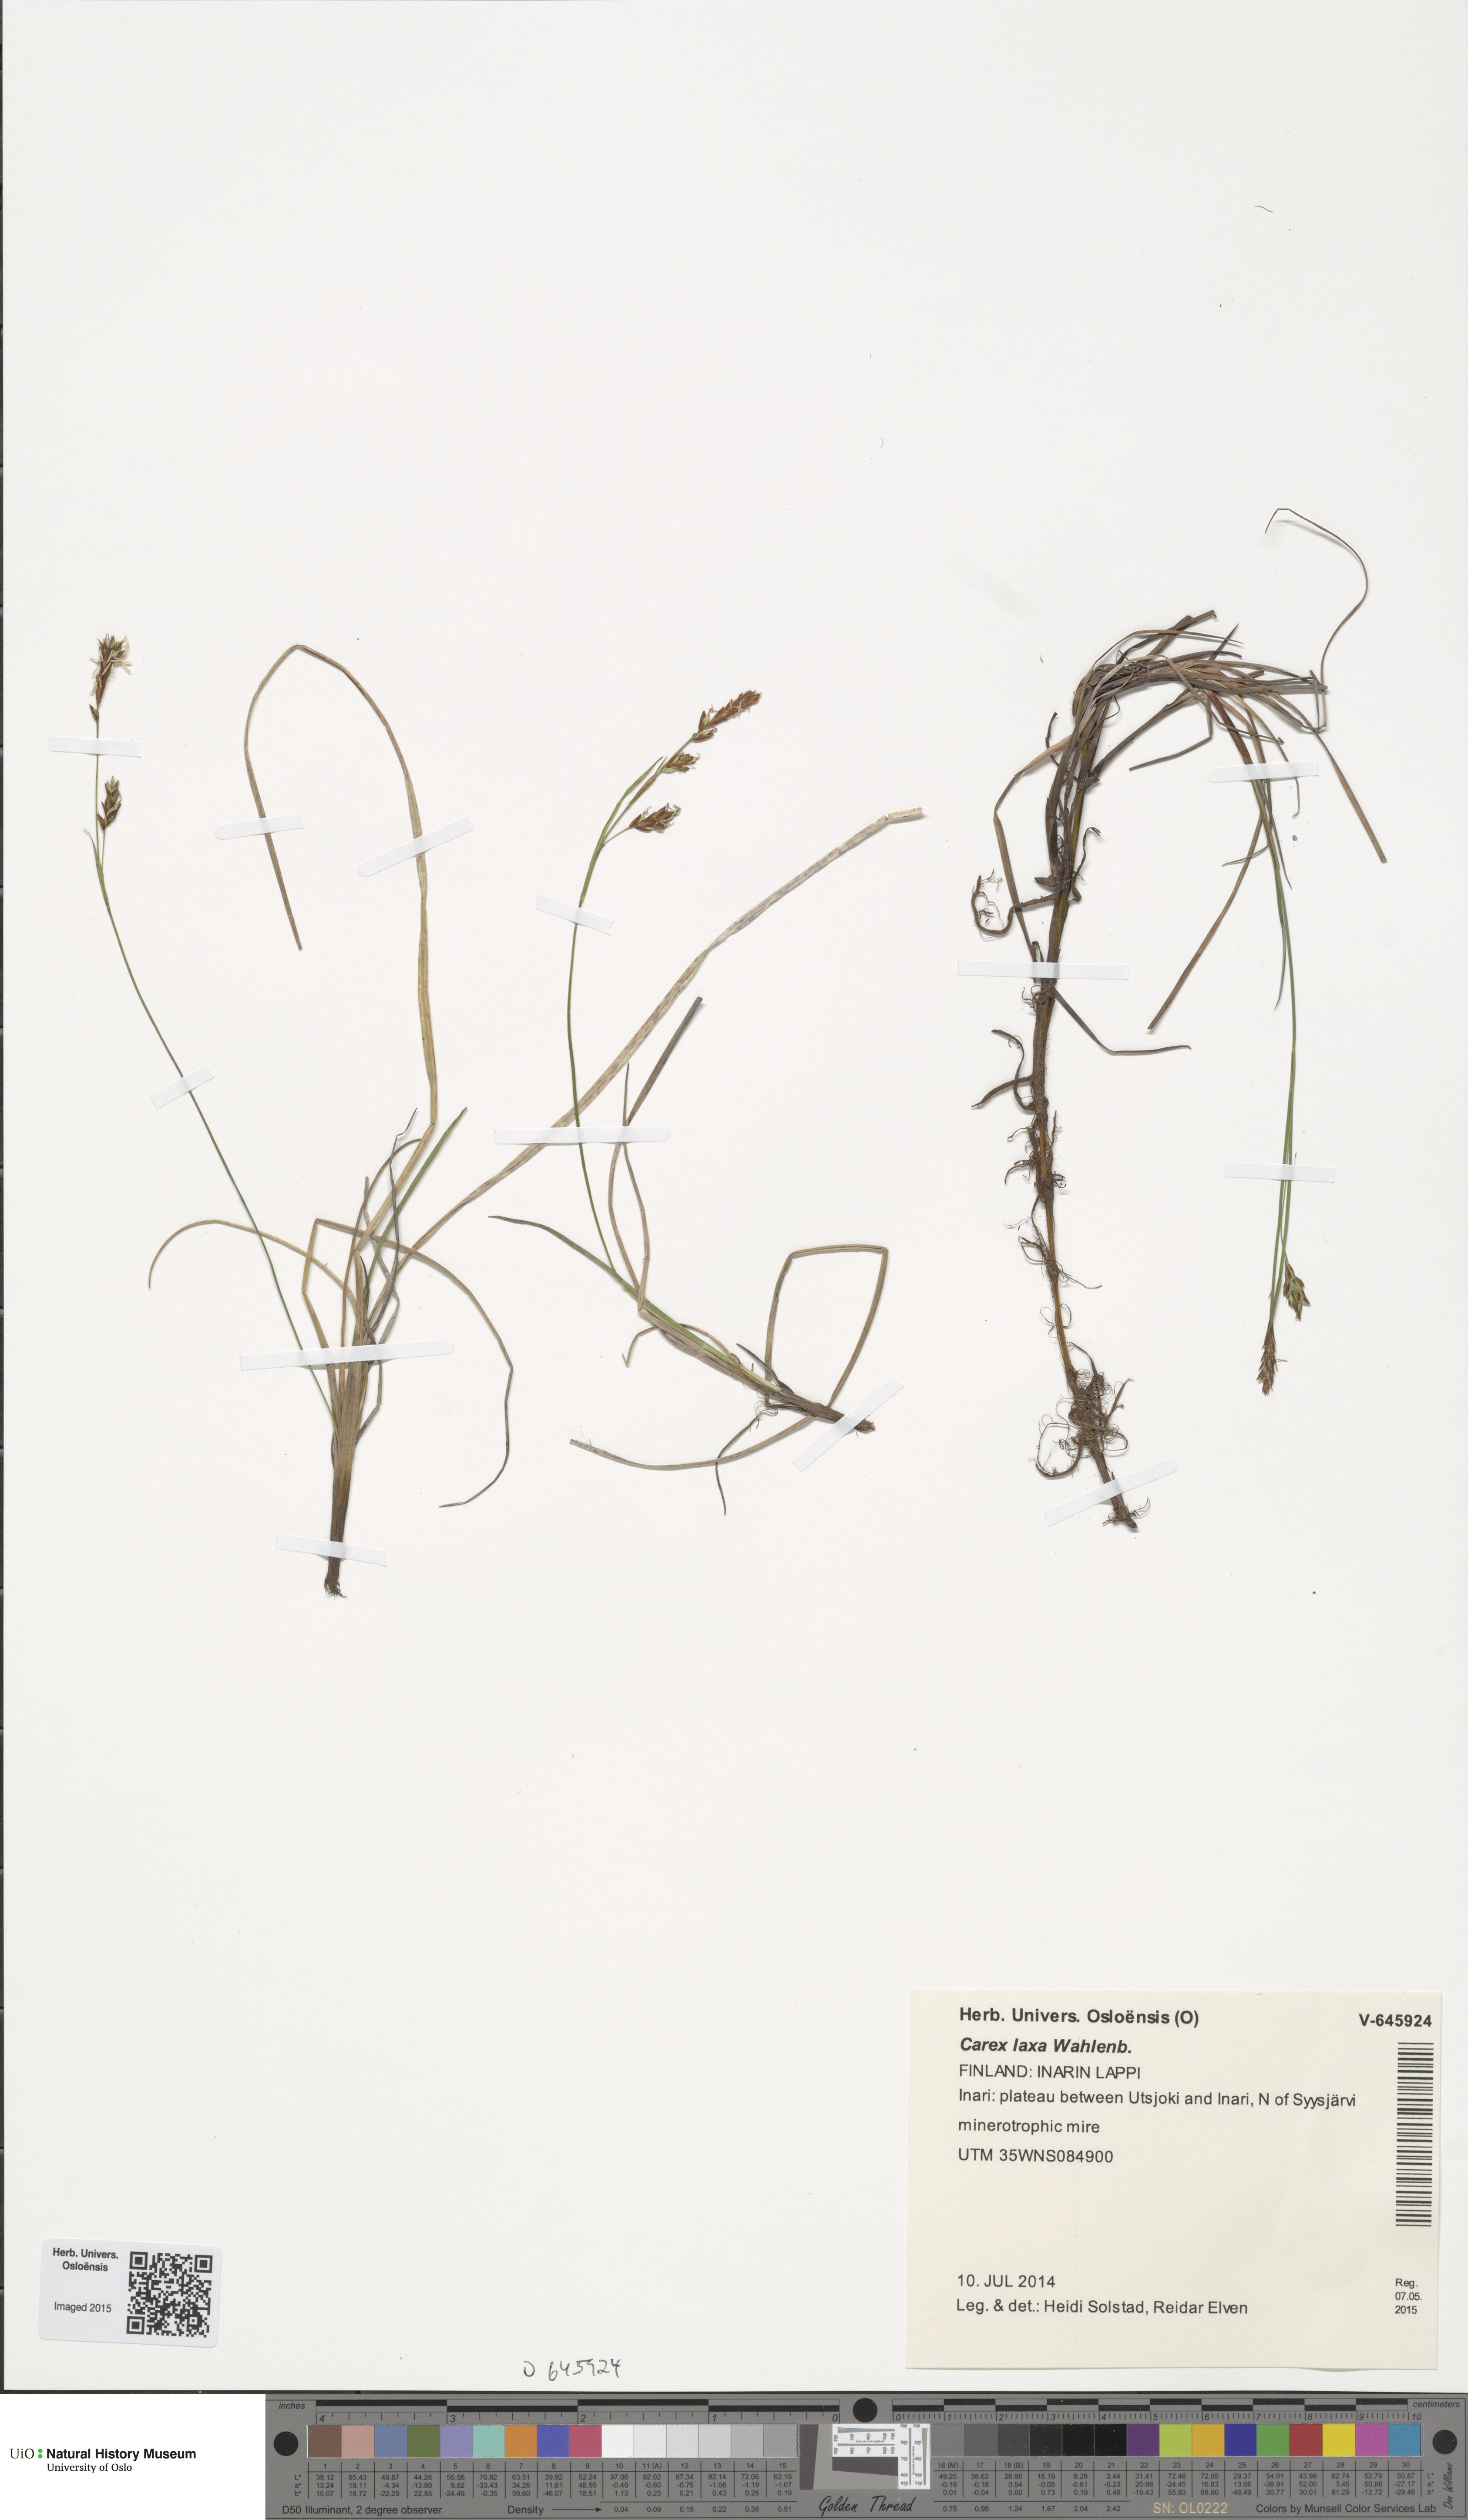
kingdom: Plantae
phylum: Tracheophyta
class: Liliopsida
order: Poales
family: Cyperaceae
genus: Carex
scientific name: Carex laxa
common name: Weak sedge
